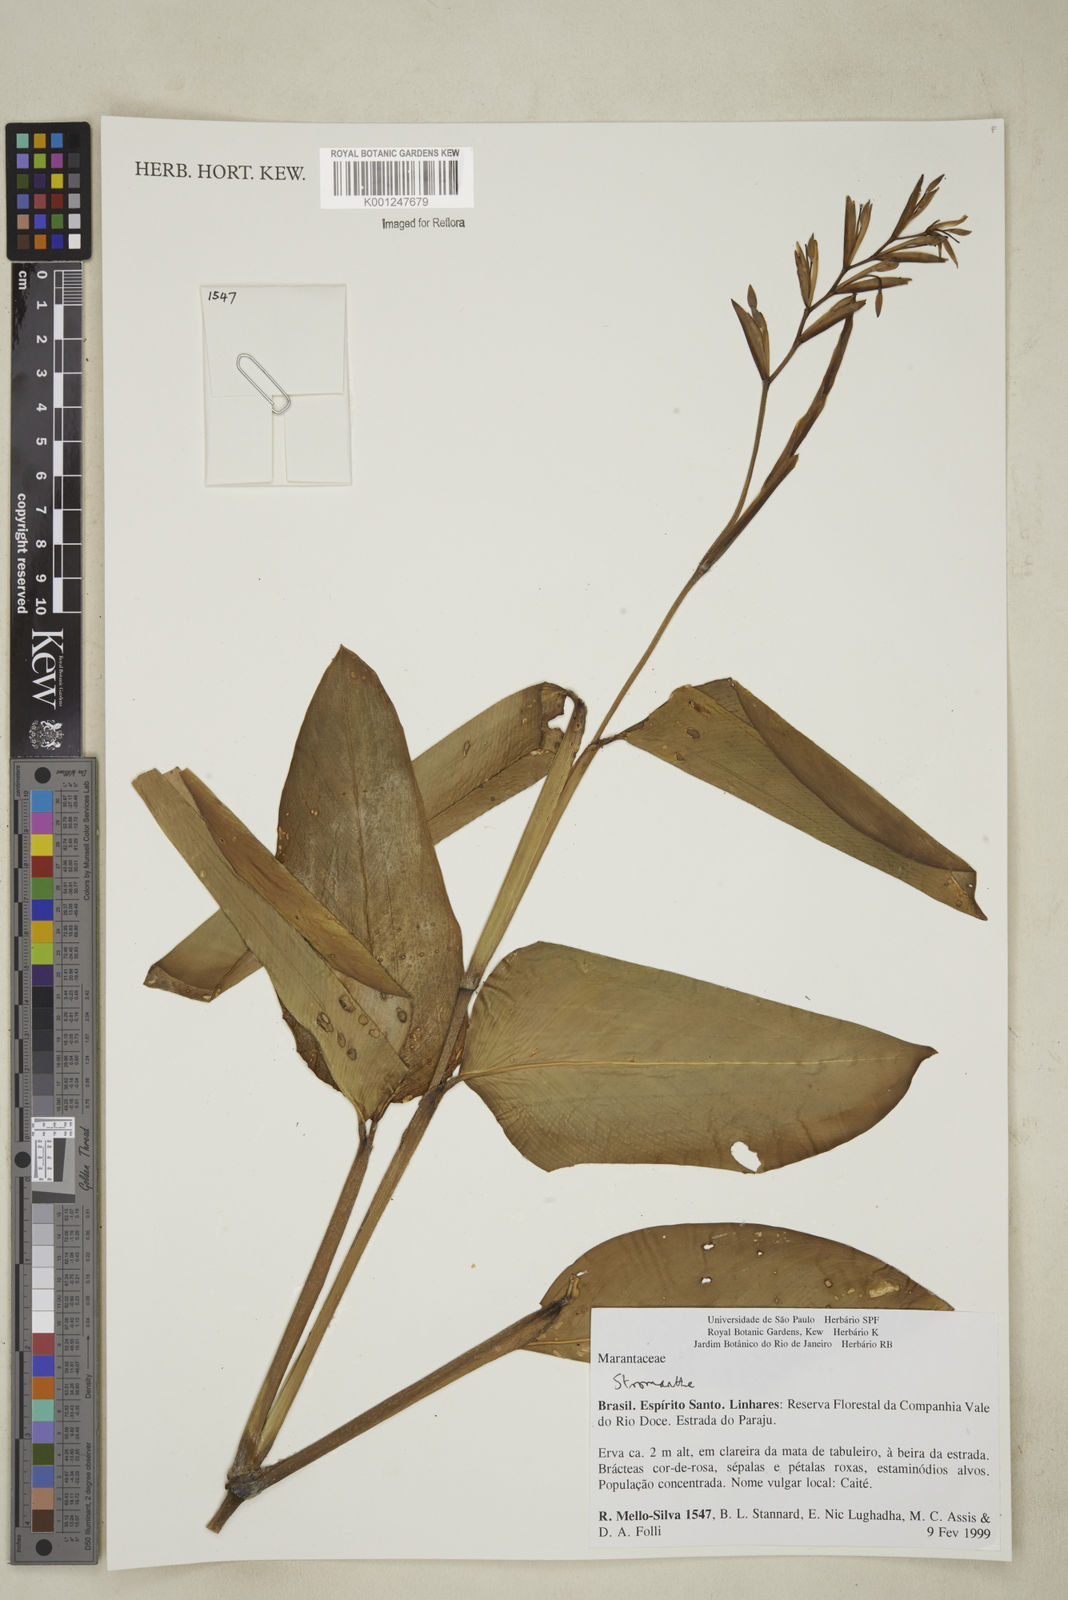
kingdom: Plantae
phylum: Tracheophyta
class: Liliopsida
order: Zingiberales
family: Marantaceae
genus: Stromanthe
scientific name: Stromanthe
